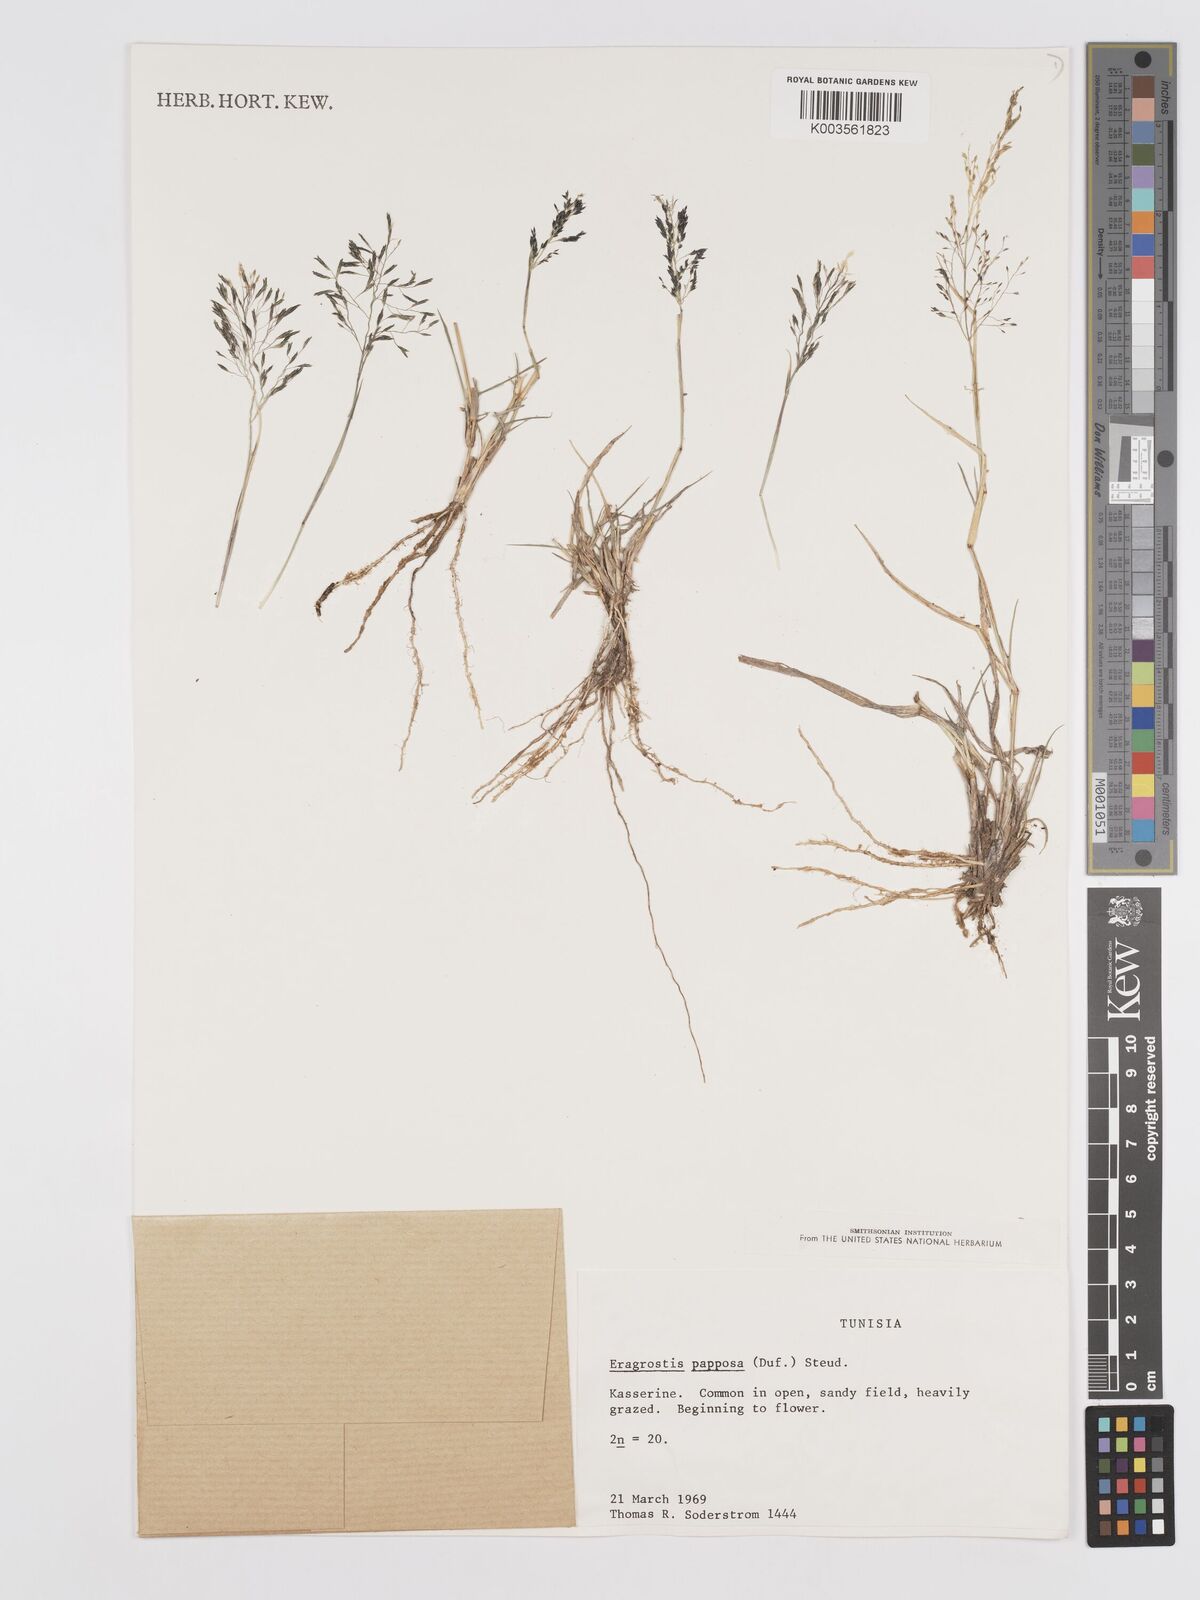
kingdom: Plantae
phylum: Tracheophyta
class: Liliopsida
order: Poales
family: Poaceae
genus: Eragrostis
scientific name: Eragrostis papposa
